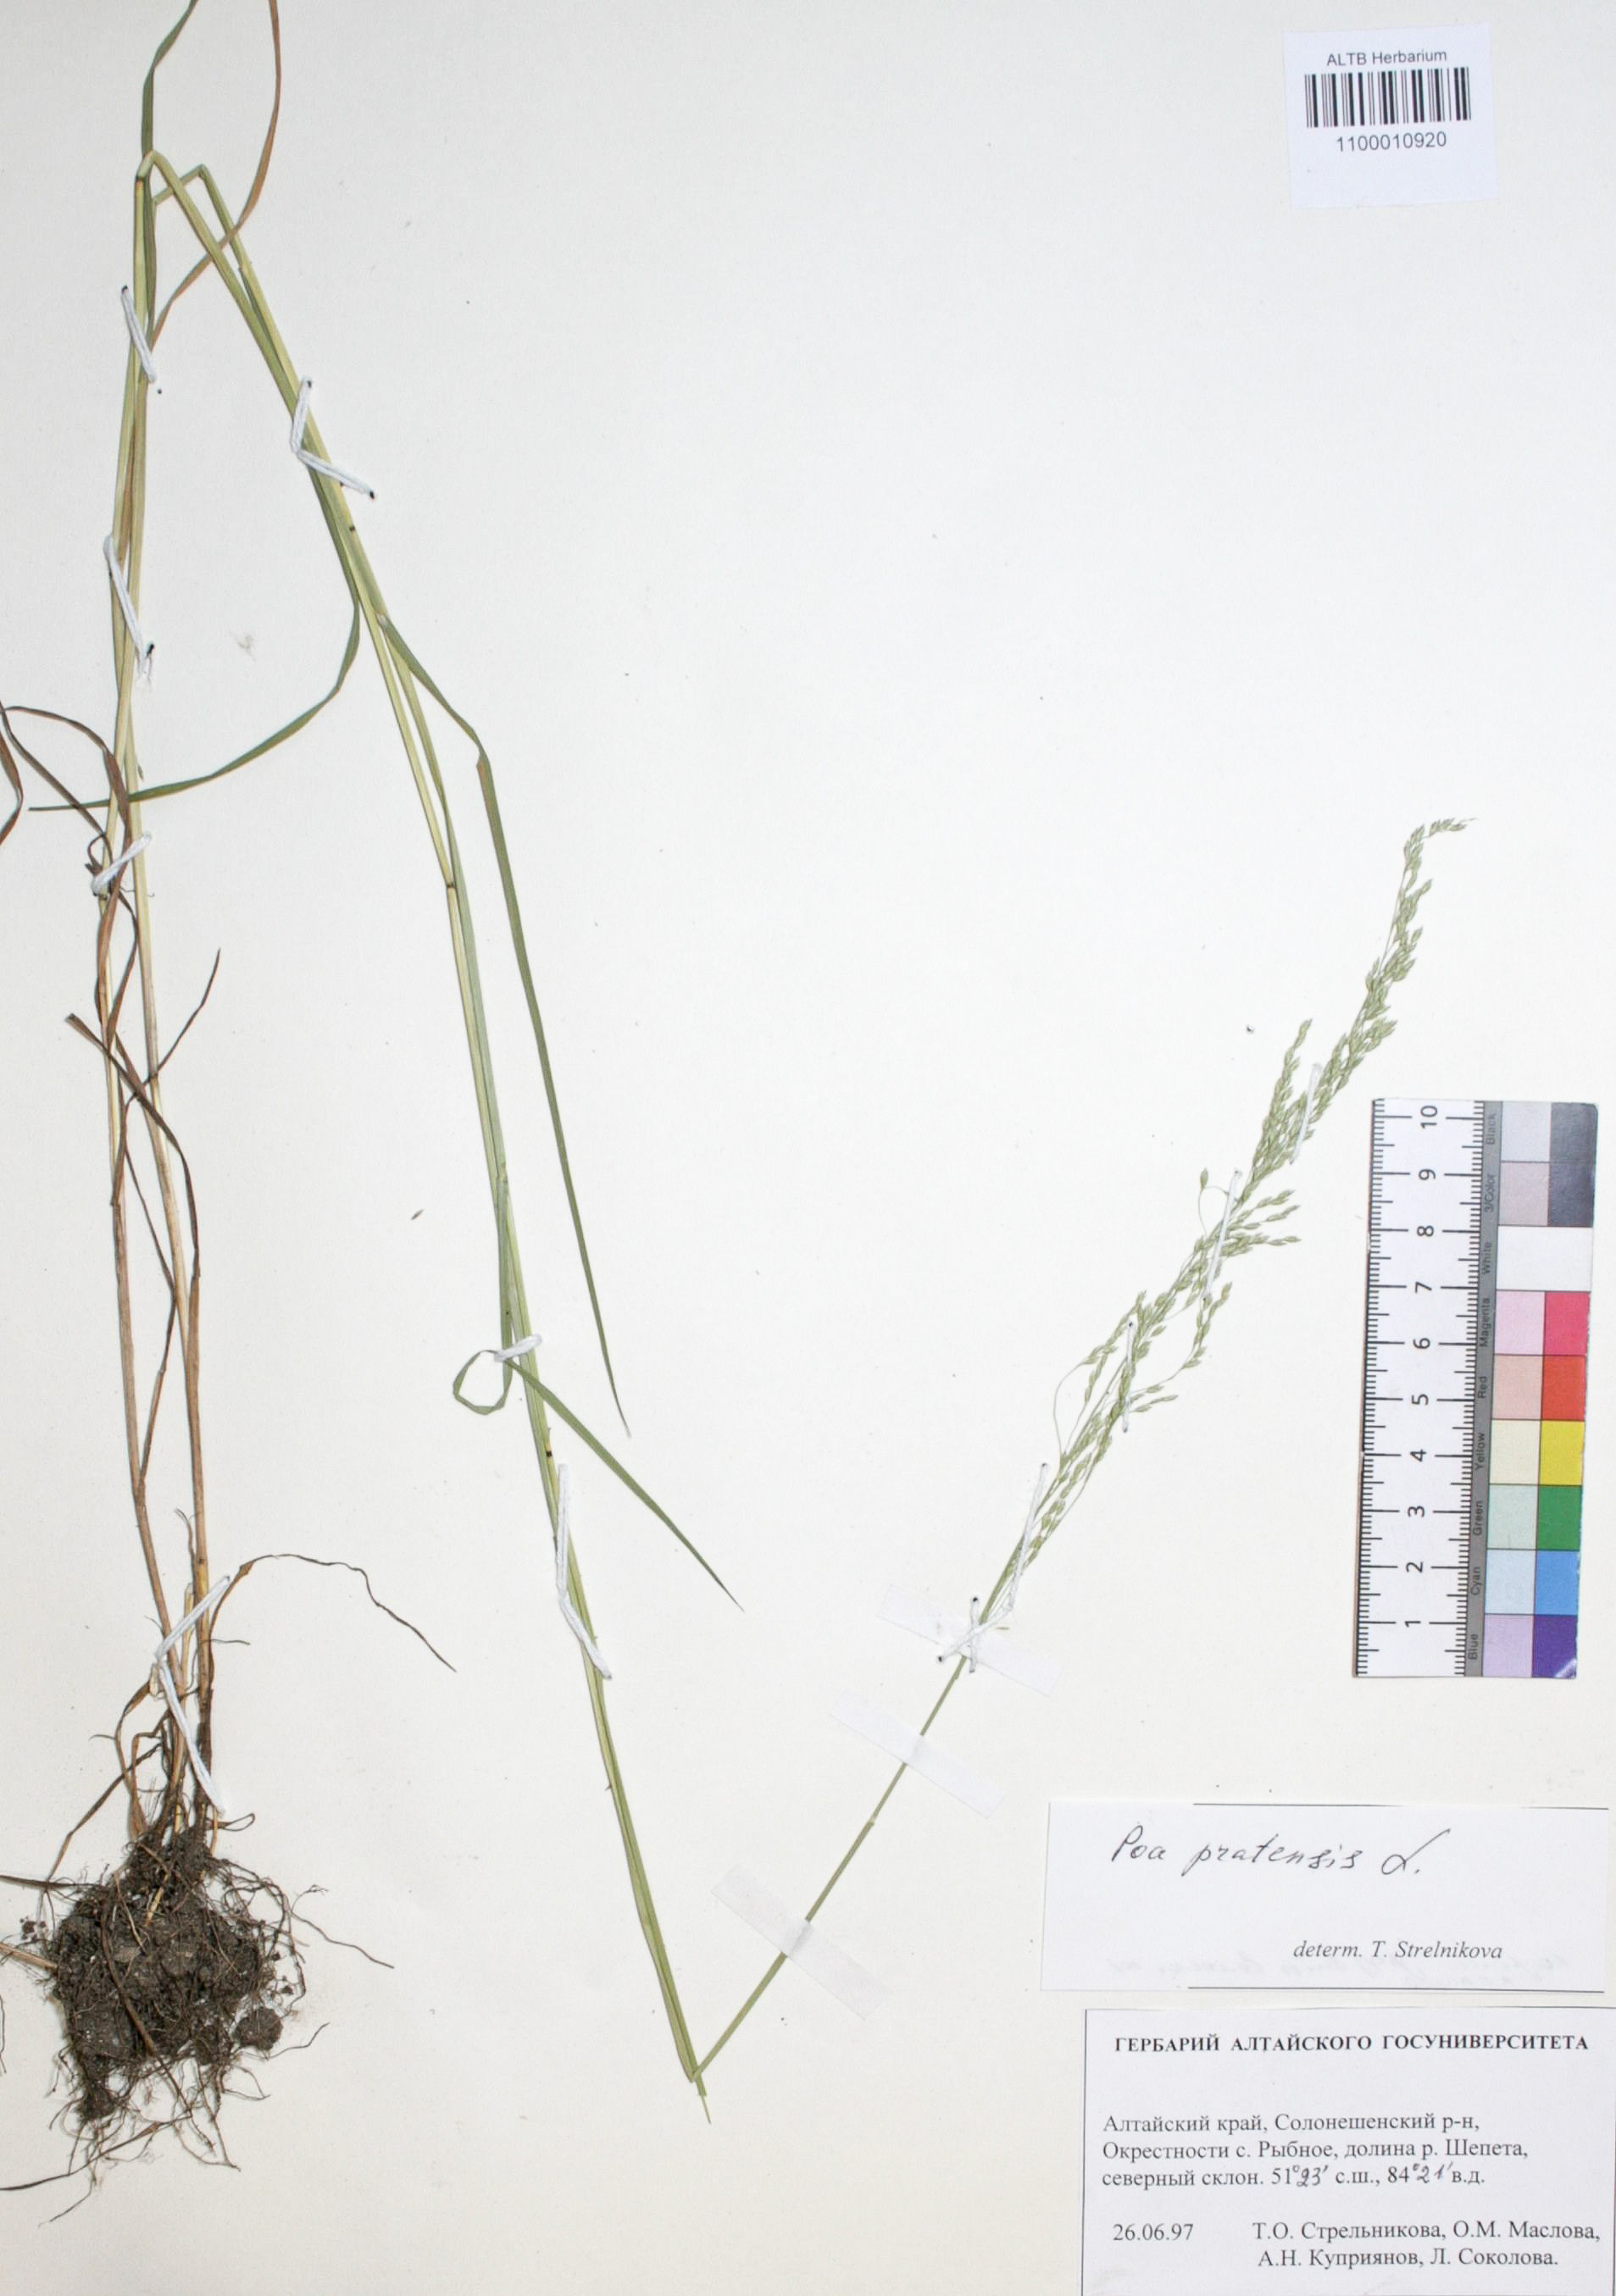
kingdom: Plantae
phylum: Tracheophyta
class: Liliopsida
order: Poales
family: Poaceae
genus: Poa
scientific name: Poa pratensis
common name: Kentucky bluegrass
